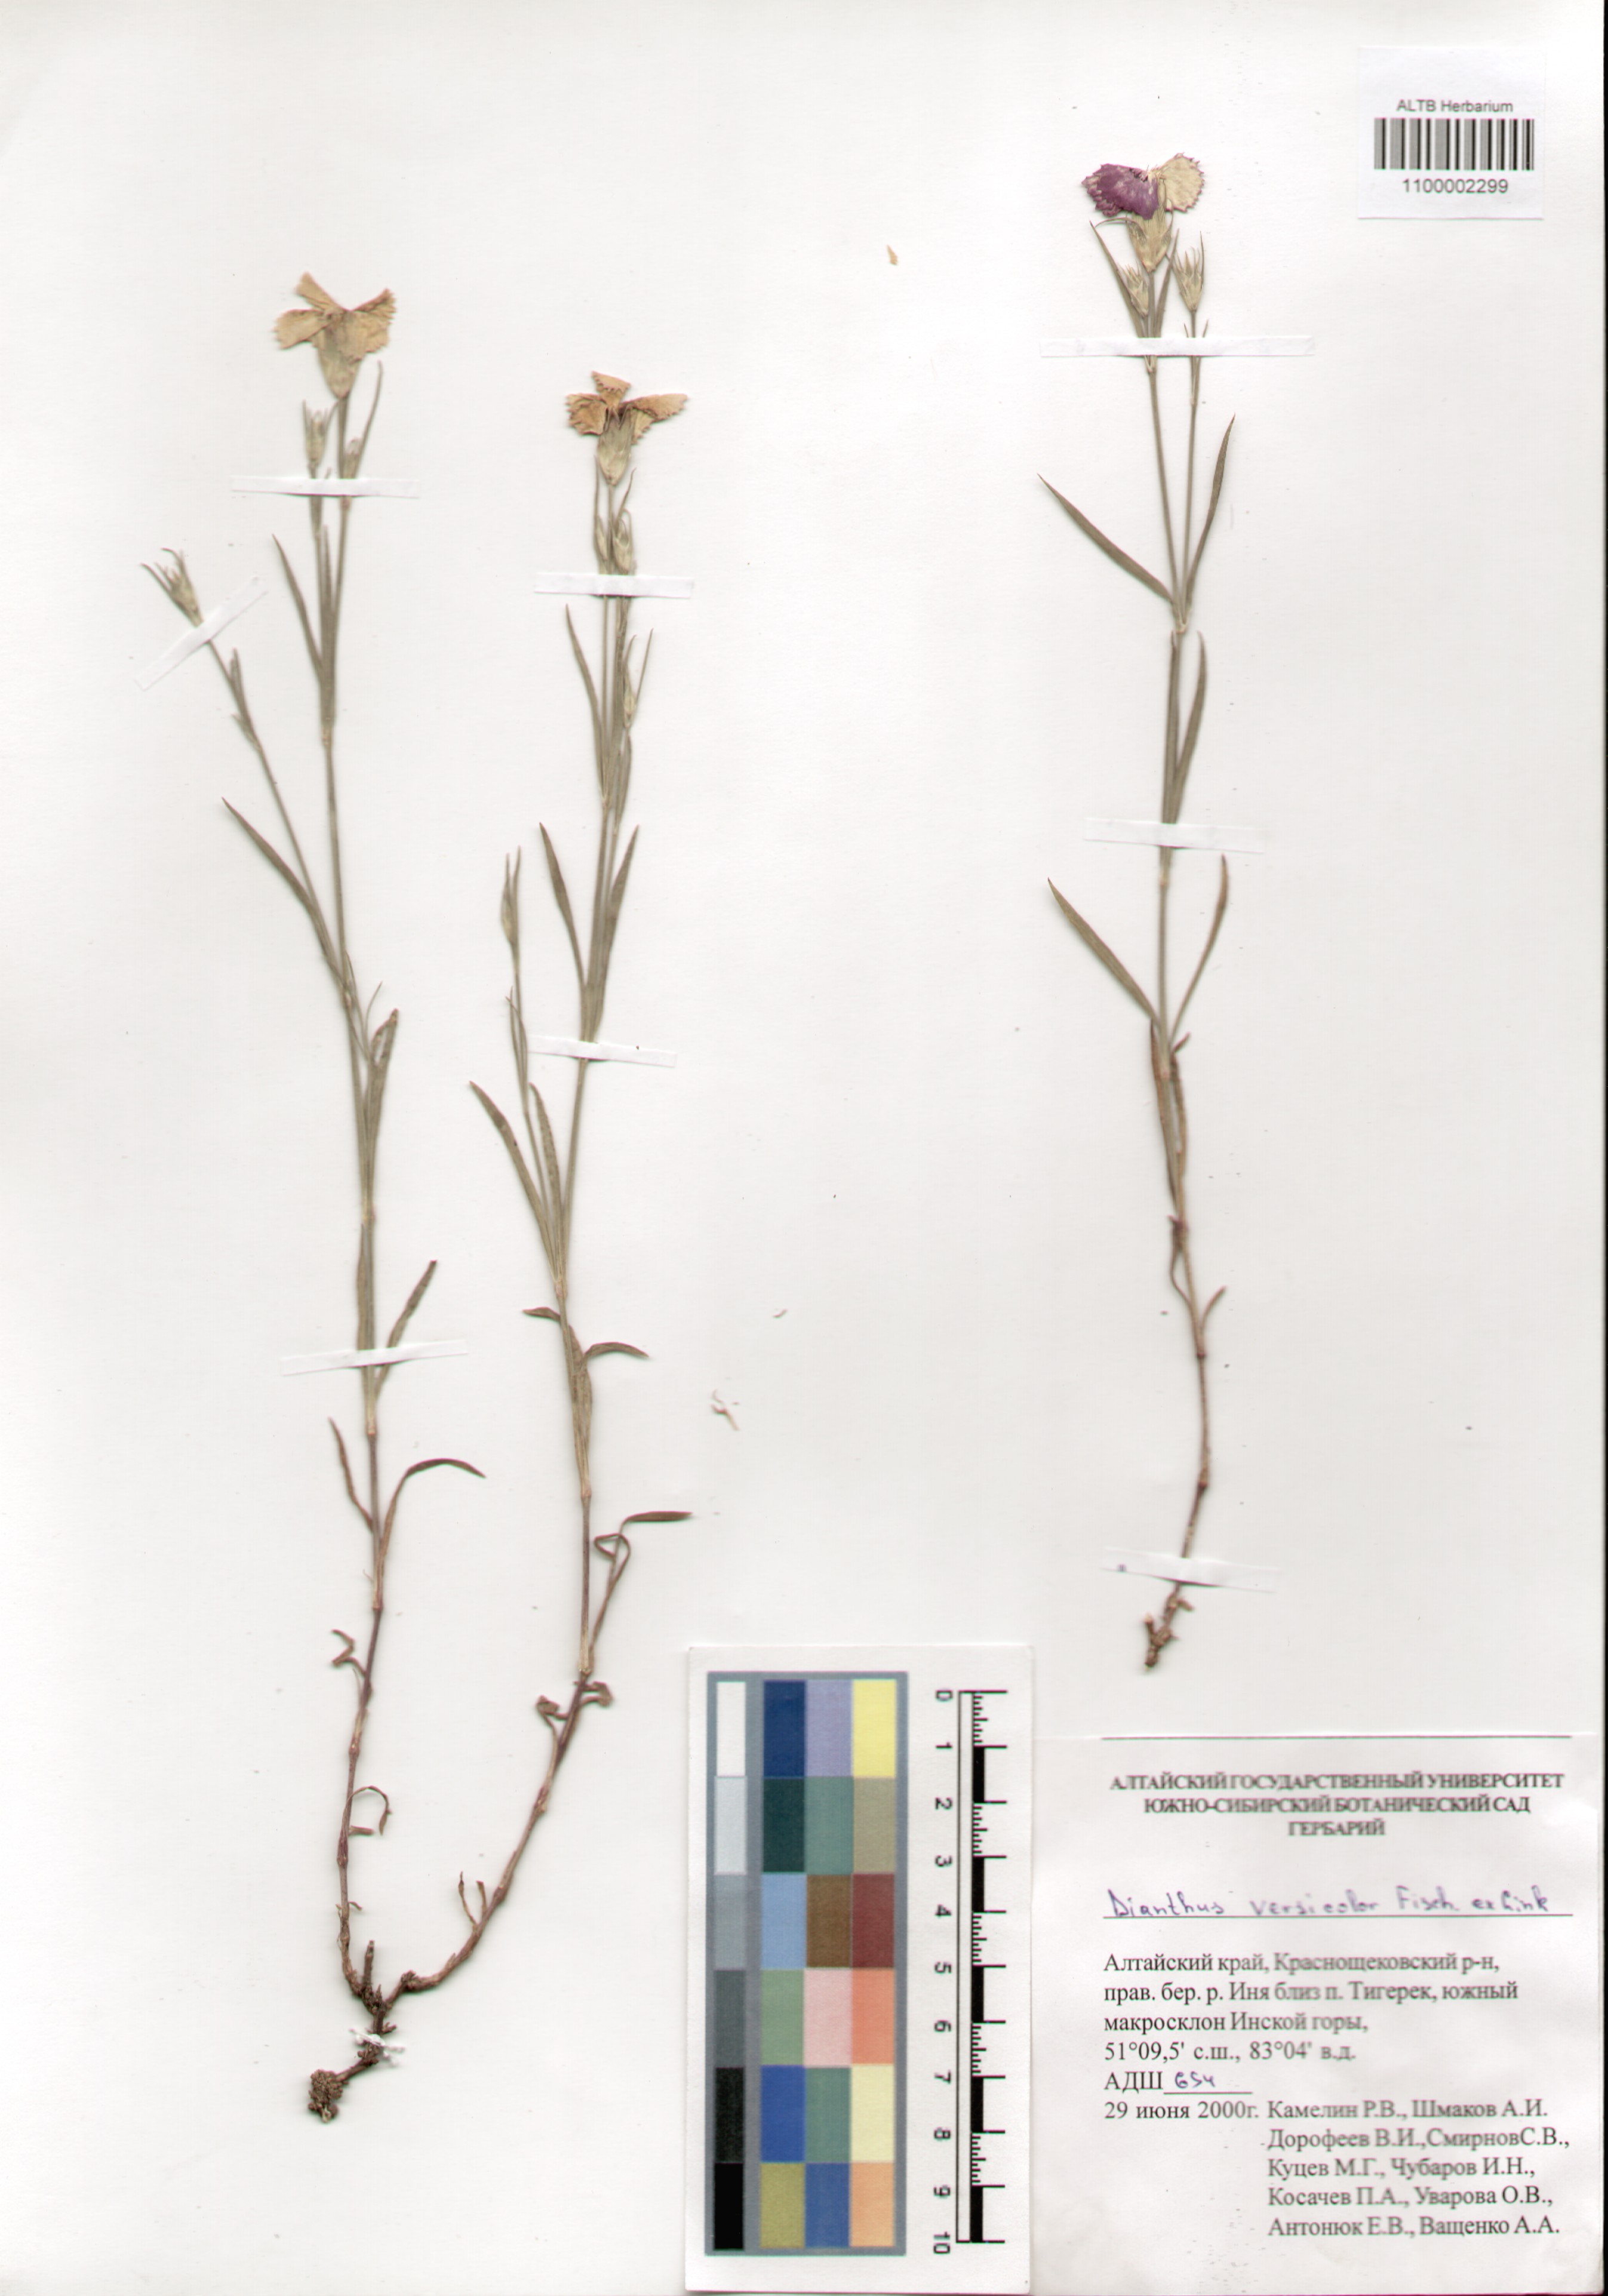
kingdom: Plantae
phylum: Tracheophyta
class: Magnoliopsida
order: Caryophyllales
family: Caryophyllaceae
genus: Dianthus
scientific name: Dianthus chinensis
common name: Rainbow pink
